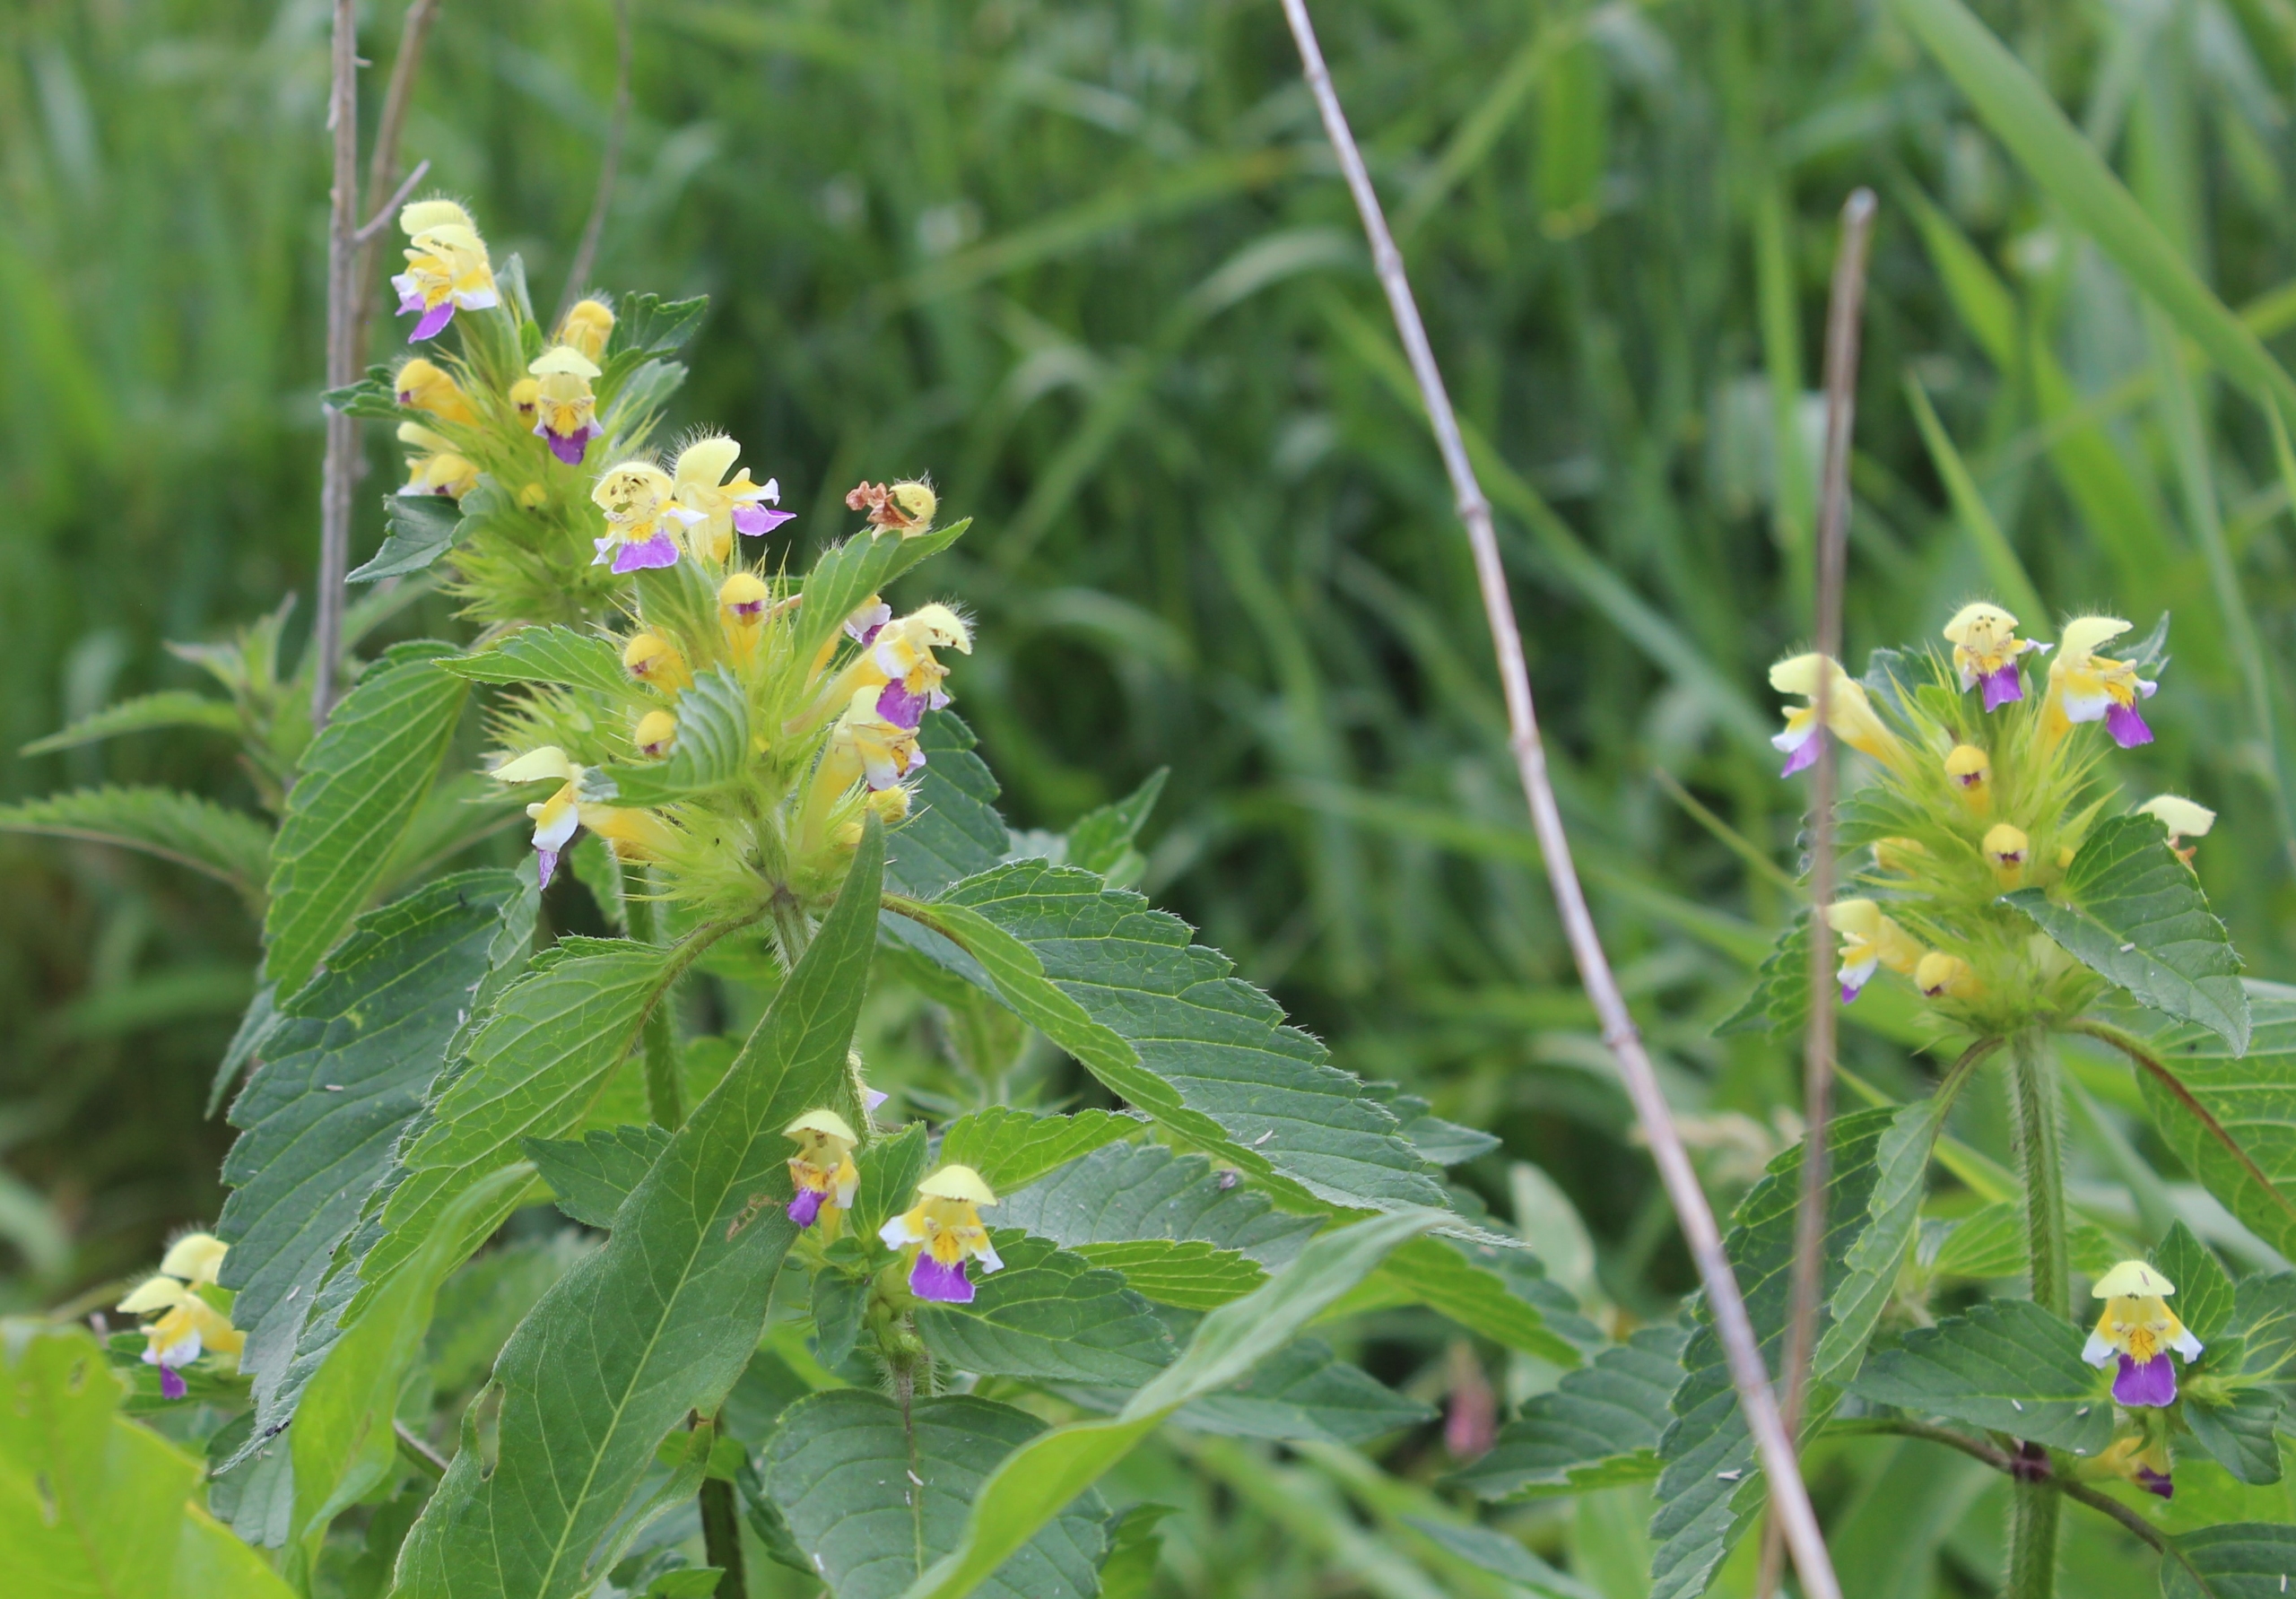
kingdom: Plantae
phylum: Tracheophyta
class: Magnoliopsida
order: Lamiales
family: Lamiaceae
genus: Galeopsis
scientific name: Galeopsis speciosa
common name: Hamp-hanekro
